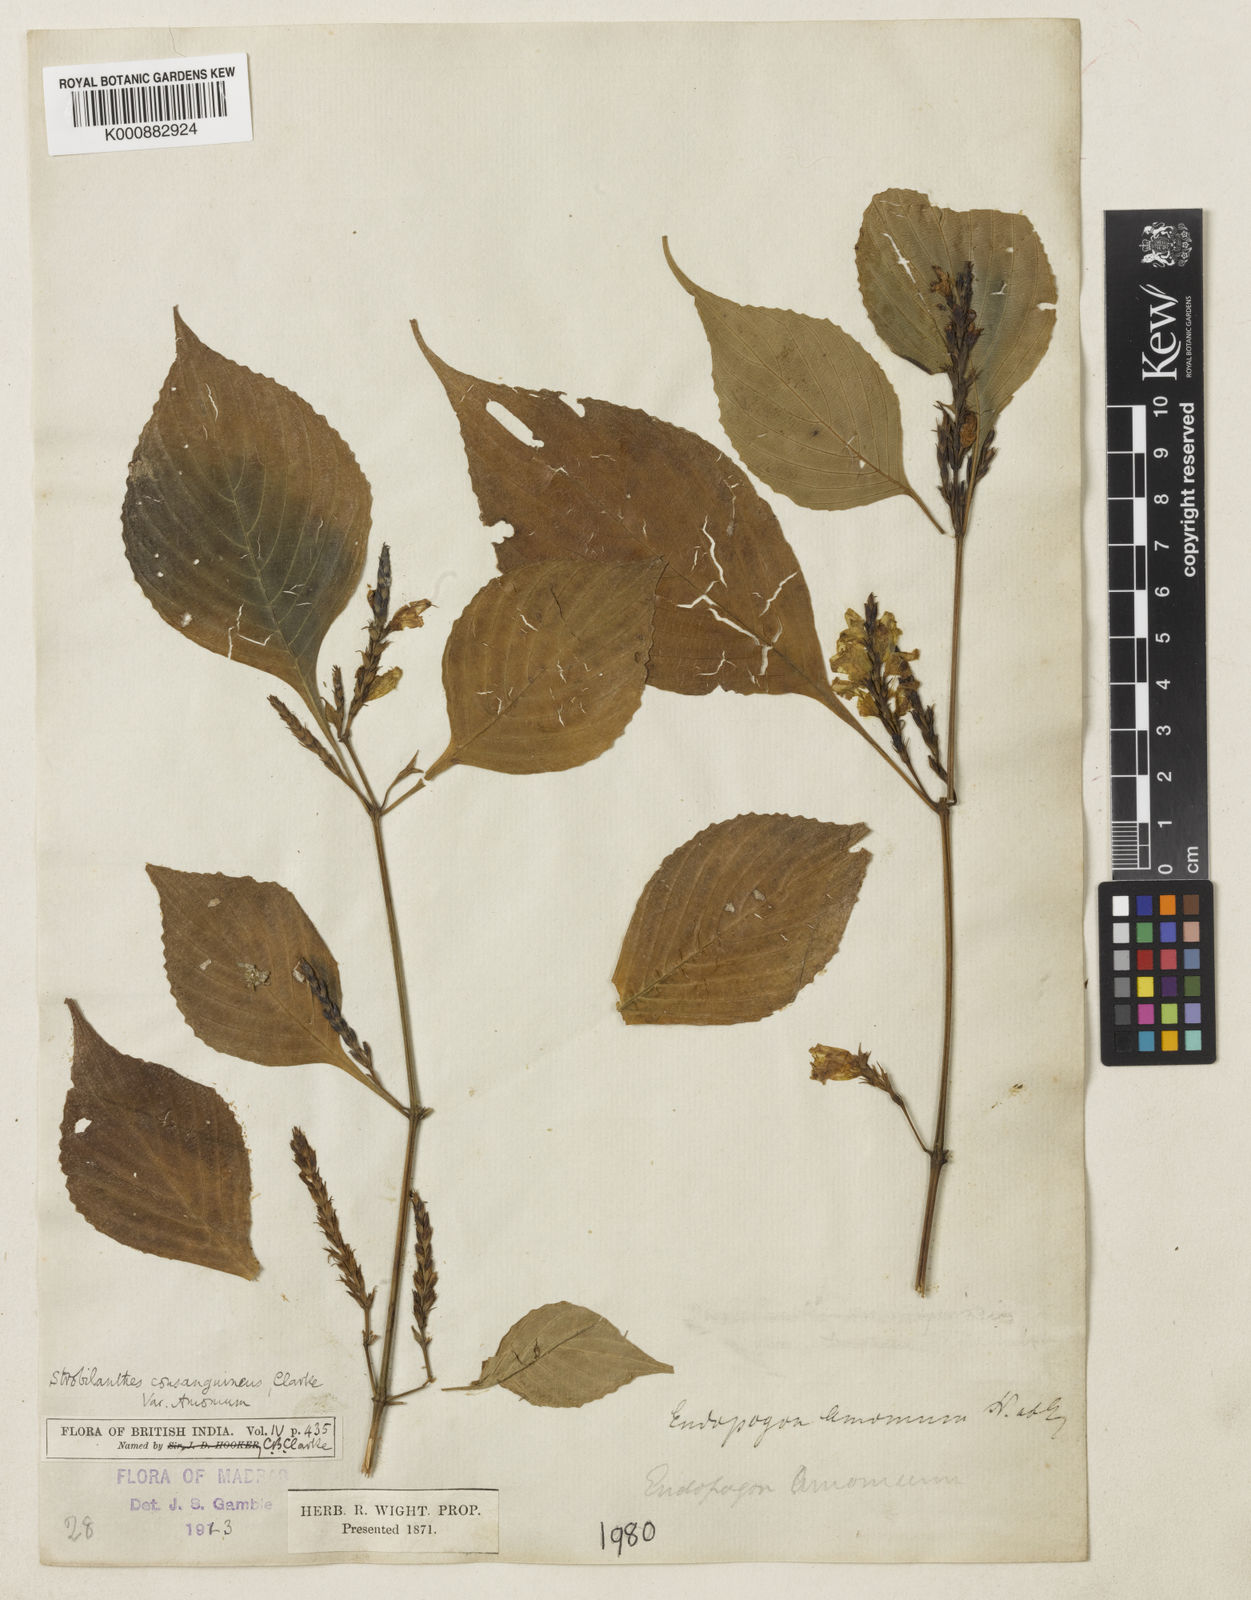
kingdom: Plantae
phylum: Tracheophyta
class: Magnoliopsida
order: Lamiales
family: Acanthaceae
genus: Strobilanthes
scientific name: Strobilanthes diandra
